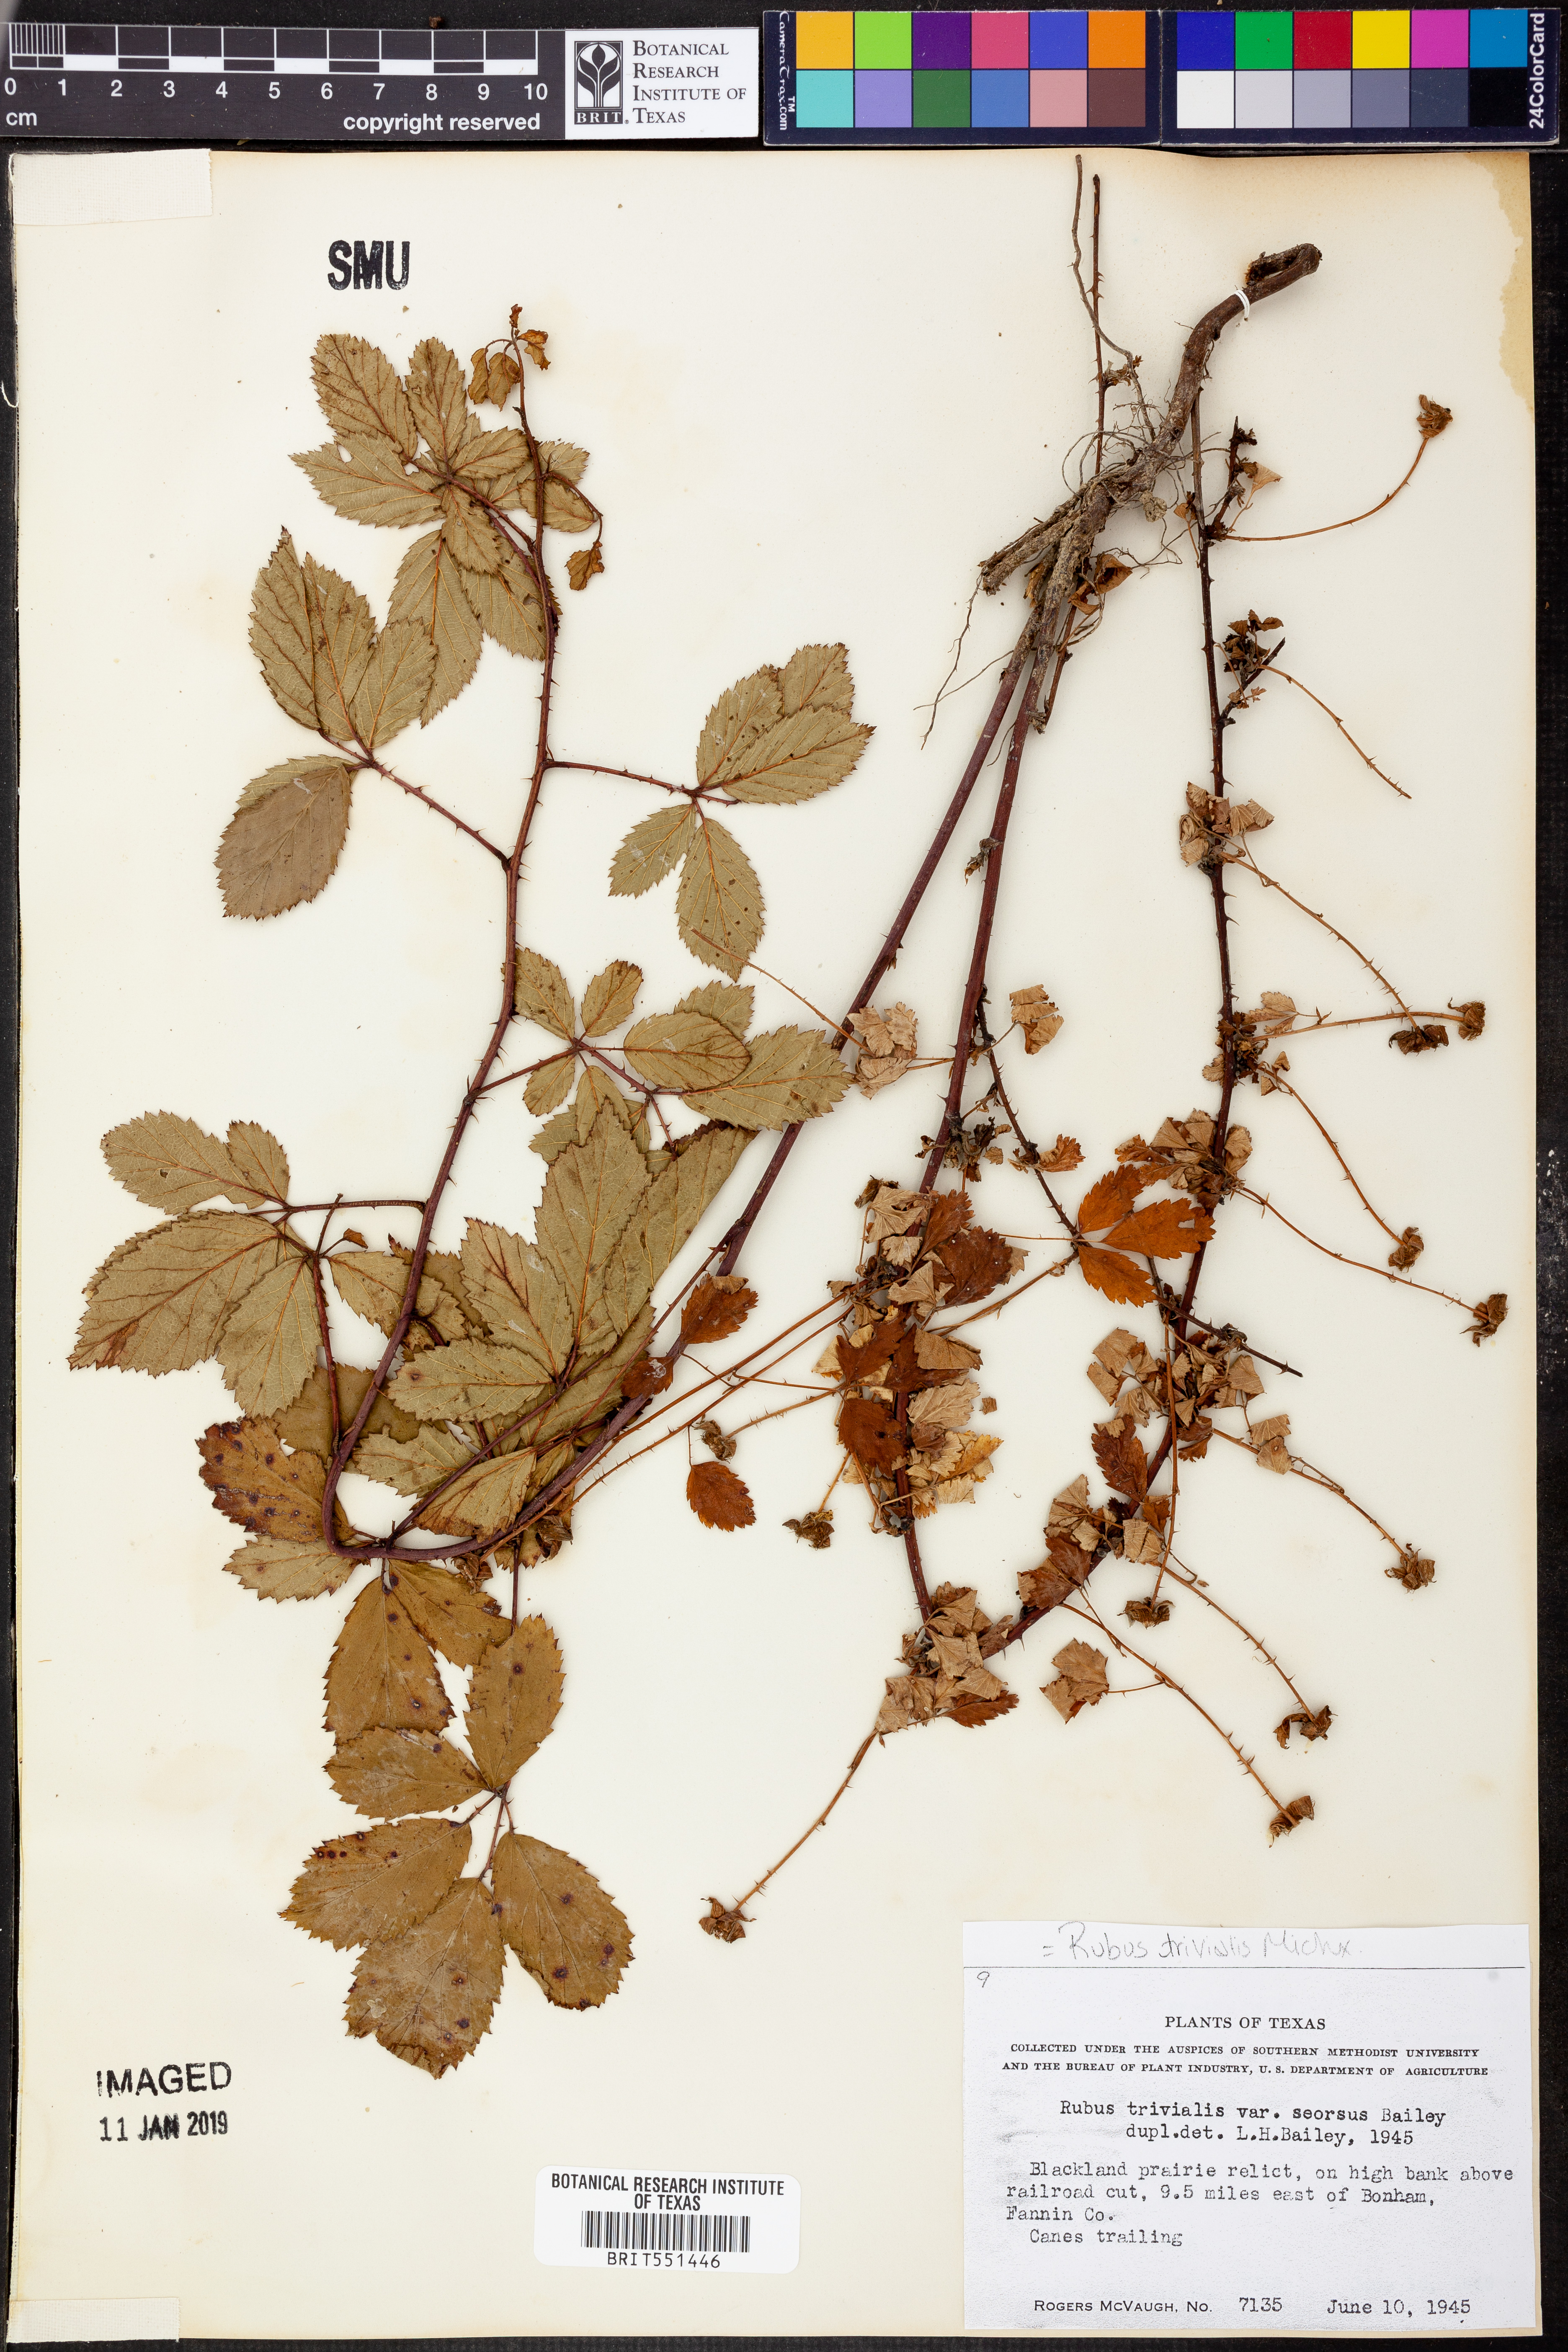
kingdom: Plantae
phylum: Tracheophyta
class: Magnoliopsida
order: Rosales
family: Rosaceae
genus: Rubus
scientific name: Rubus trivialis
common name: Southern dewberry
